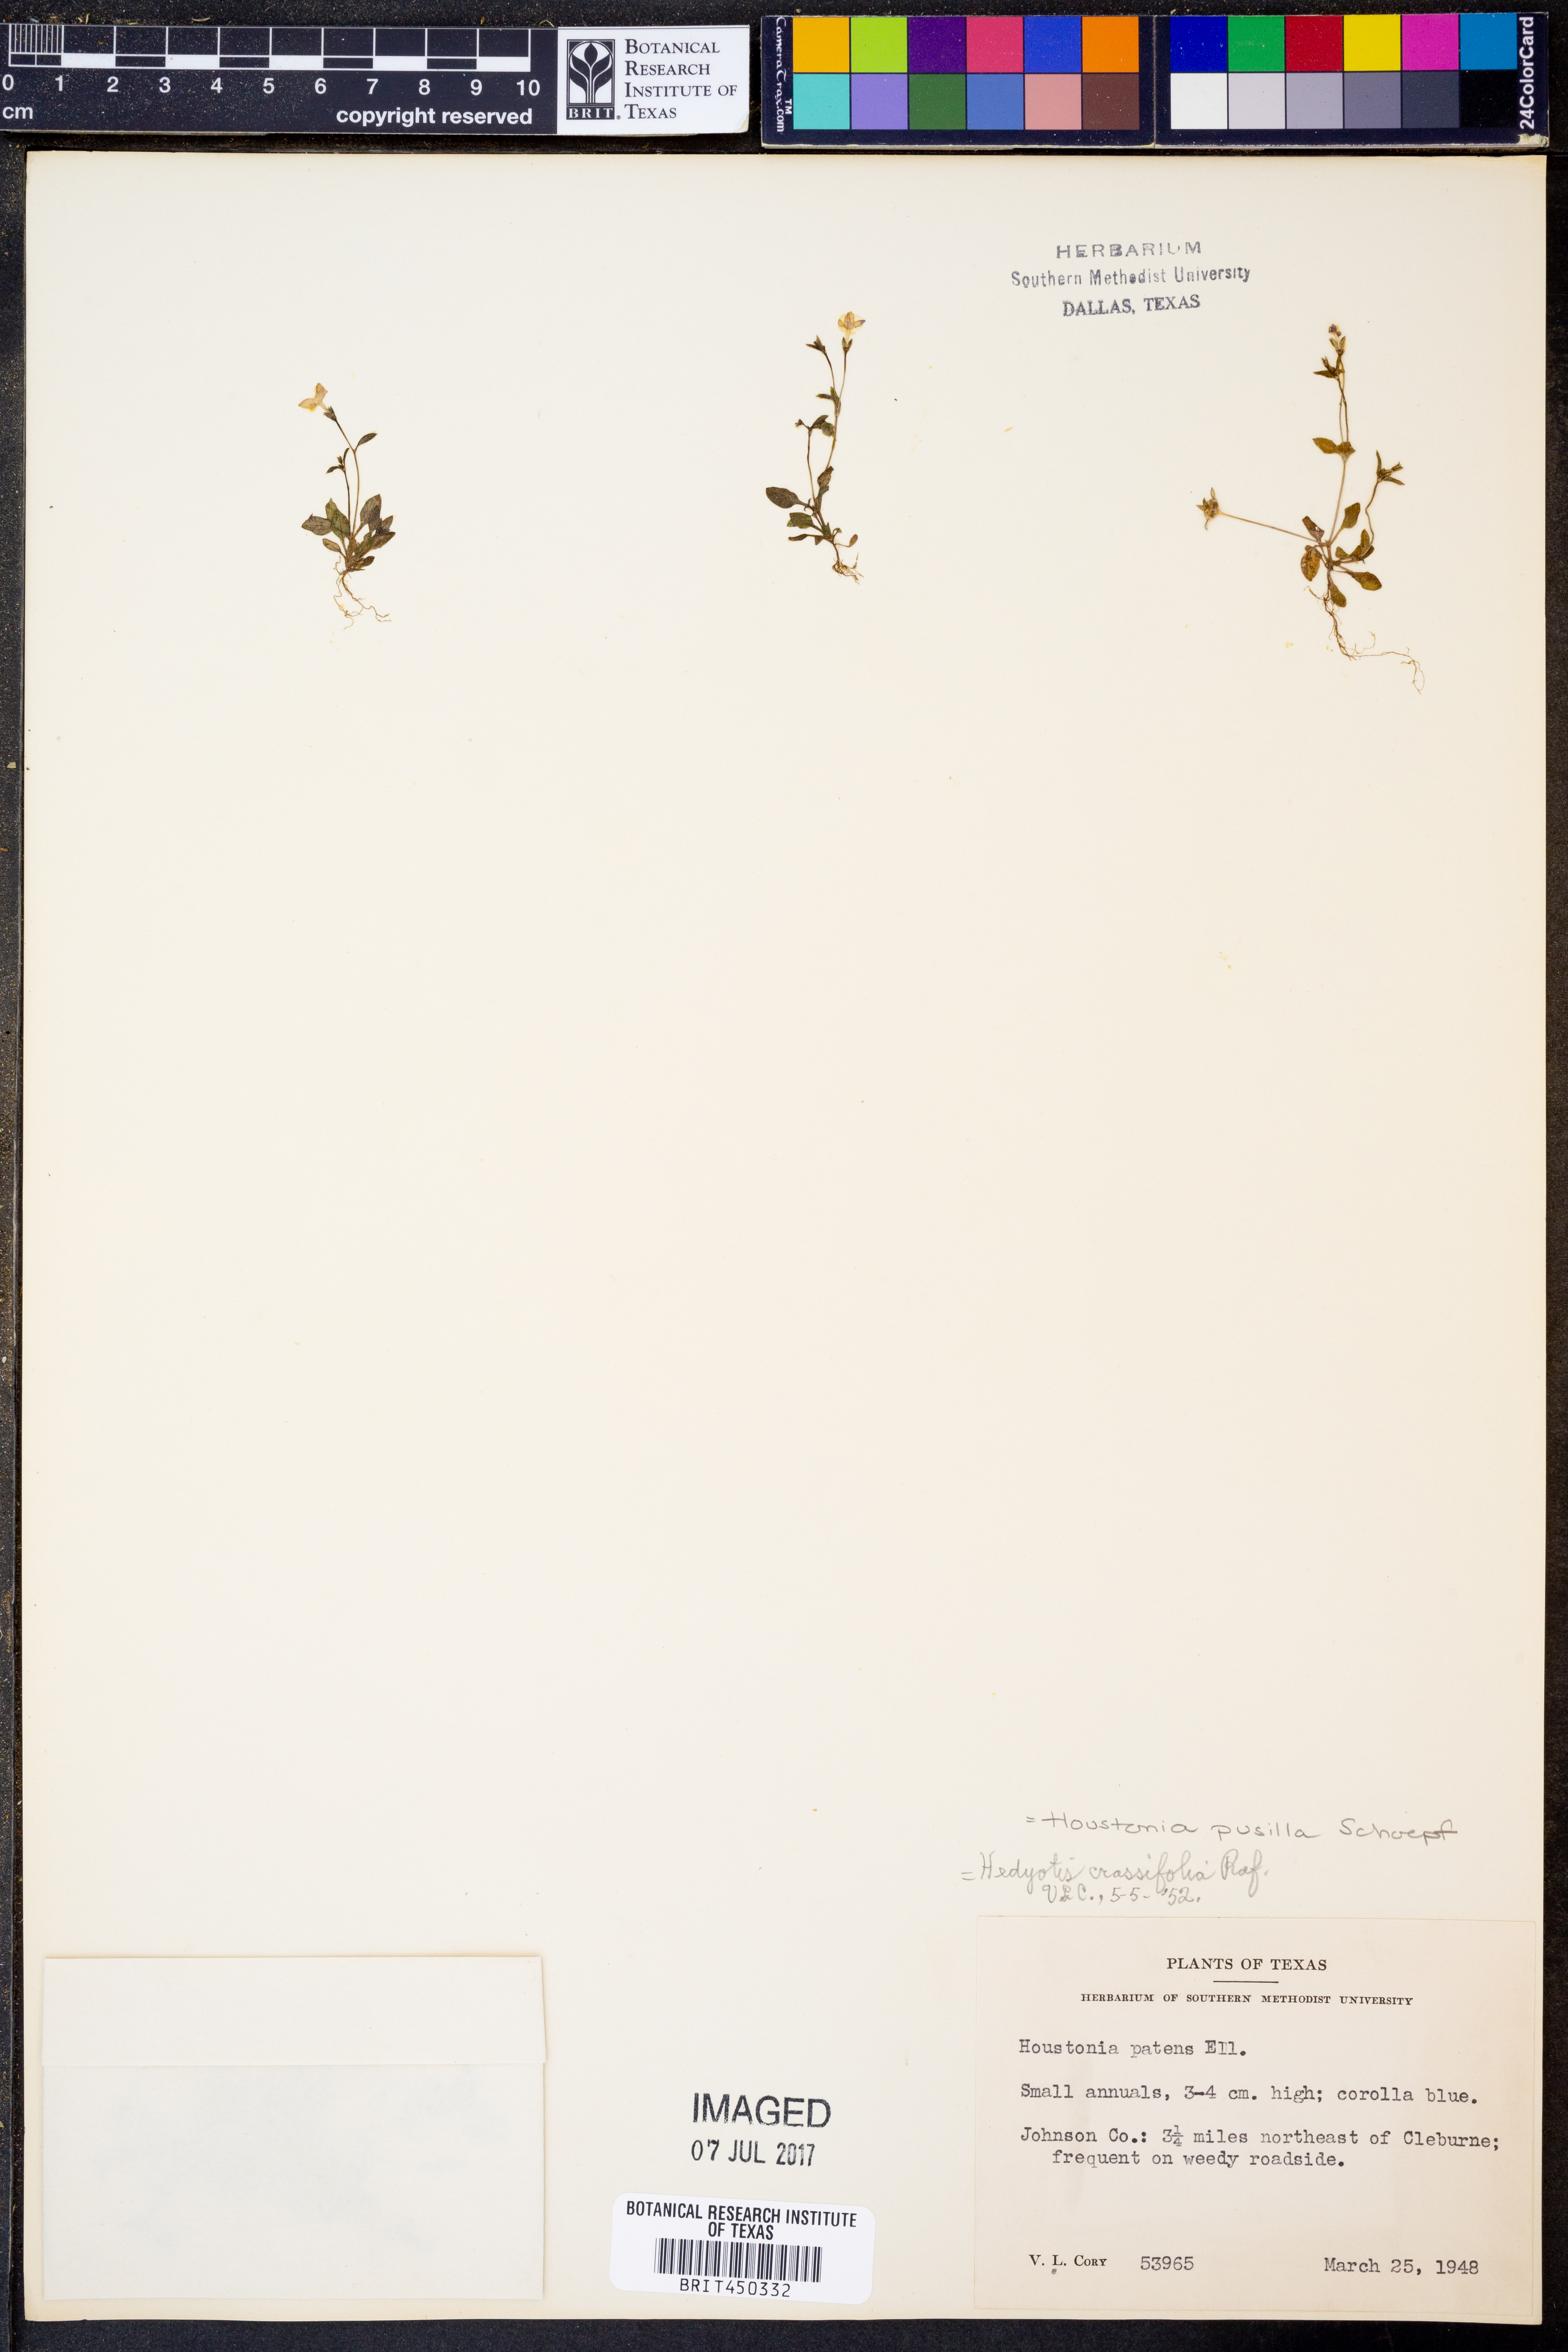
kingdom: Plantae
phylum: Tracheophyta
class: Magnoliopsida
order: Gentianales
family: Rubiaceae
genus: Houstonia
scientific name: Houstonia pusilla
